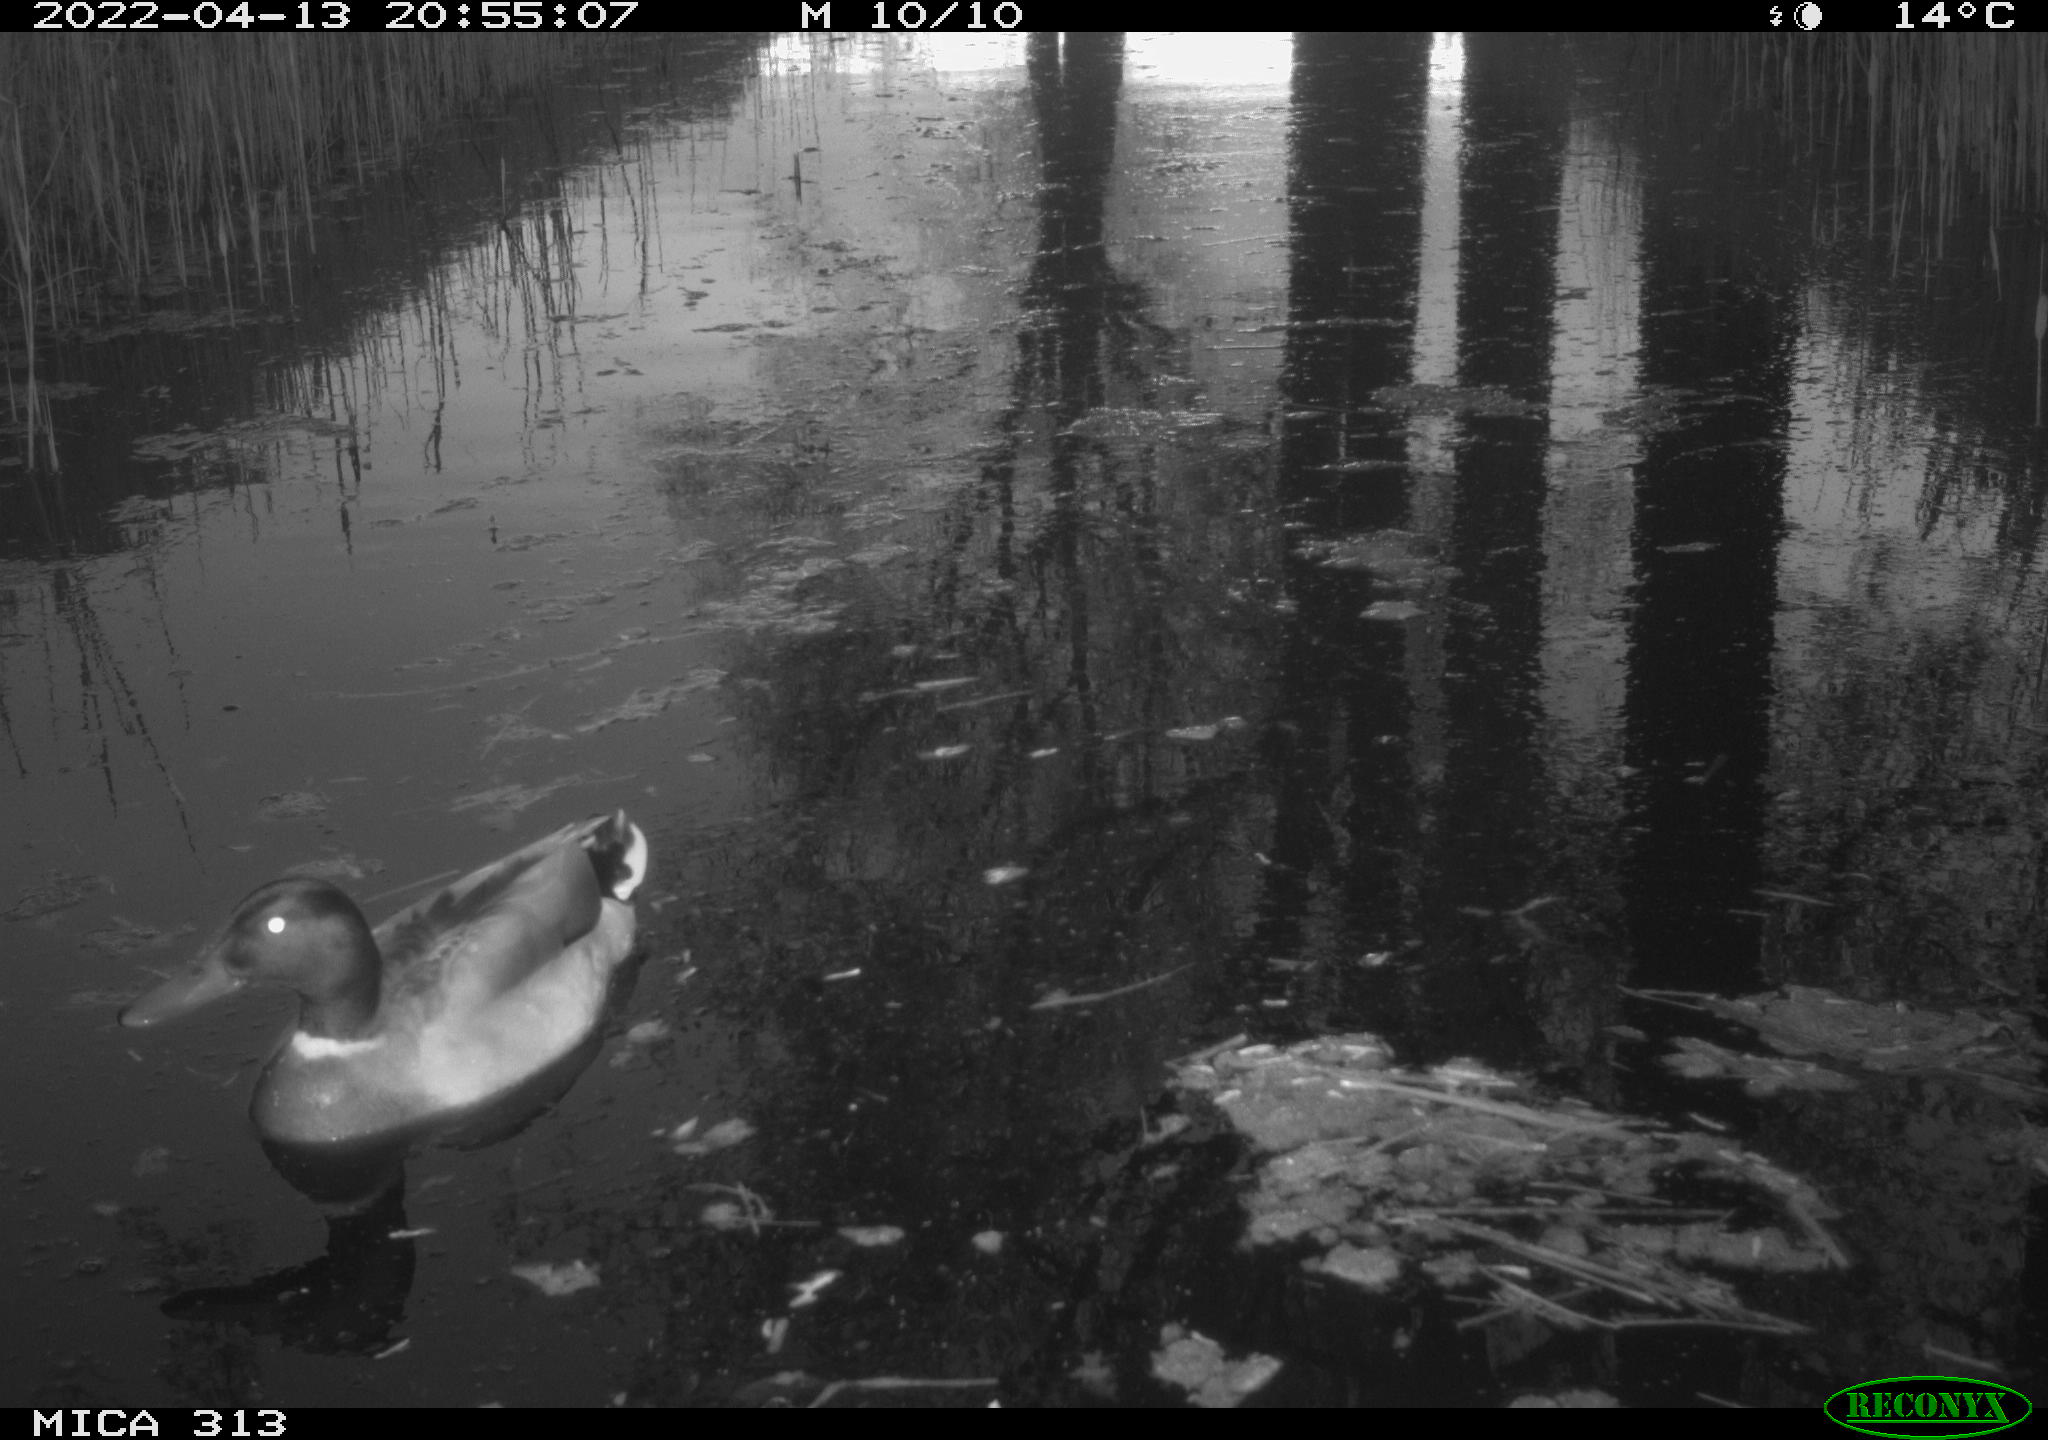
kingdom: Animalia
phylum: Chordata
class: Aves
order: Anseriformes
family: Anatidae
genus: Anas
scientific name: Anas platyrhynchos
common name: Mallard
